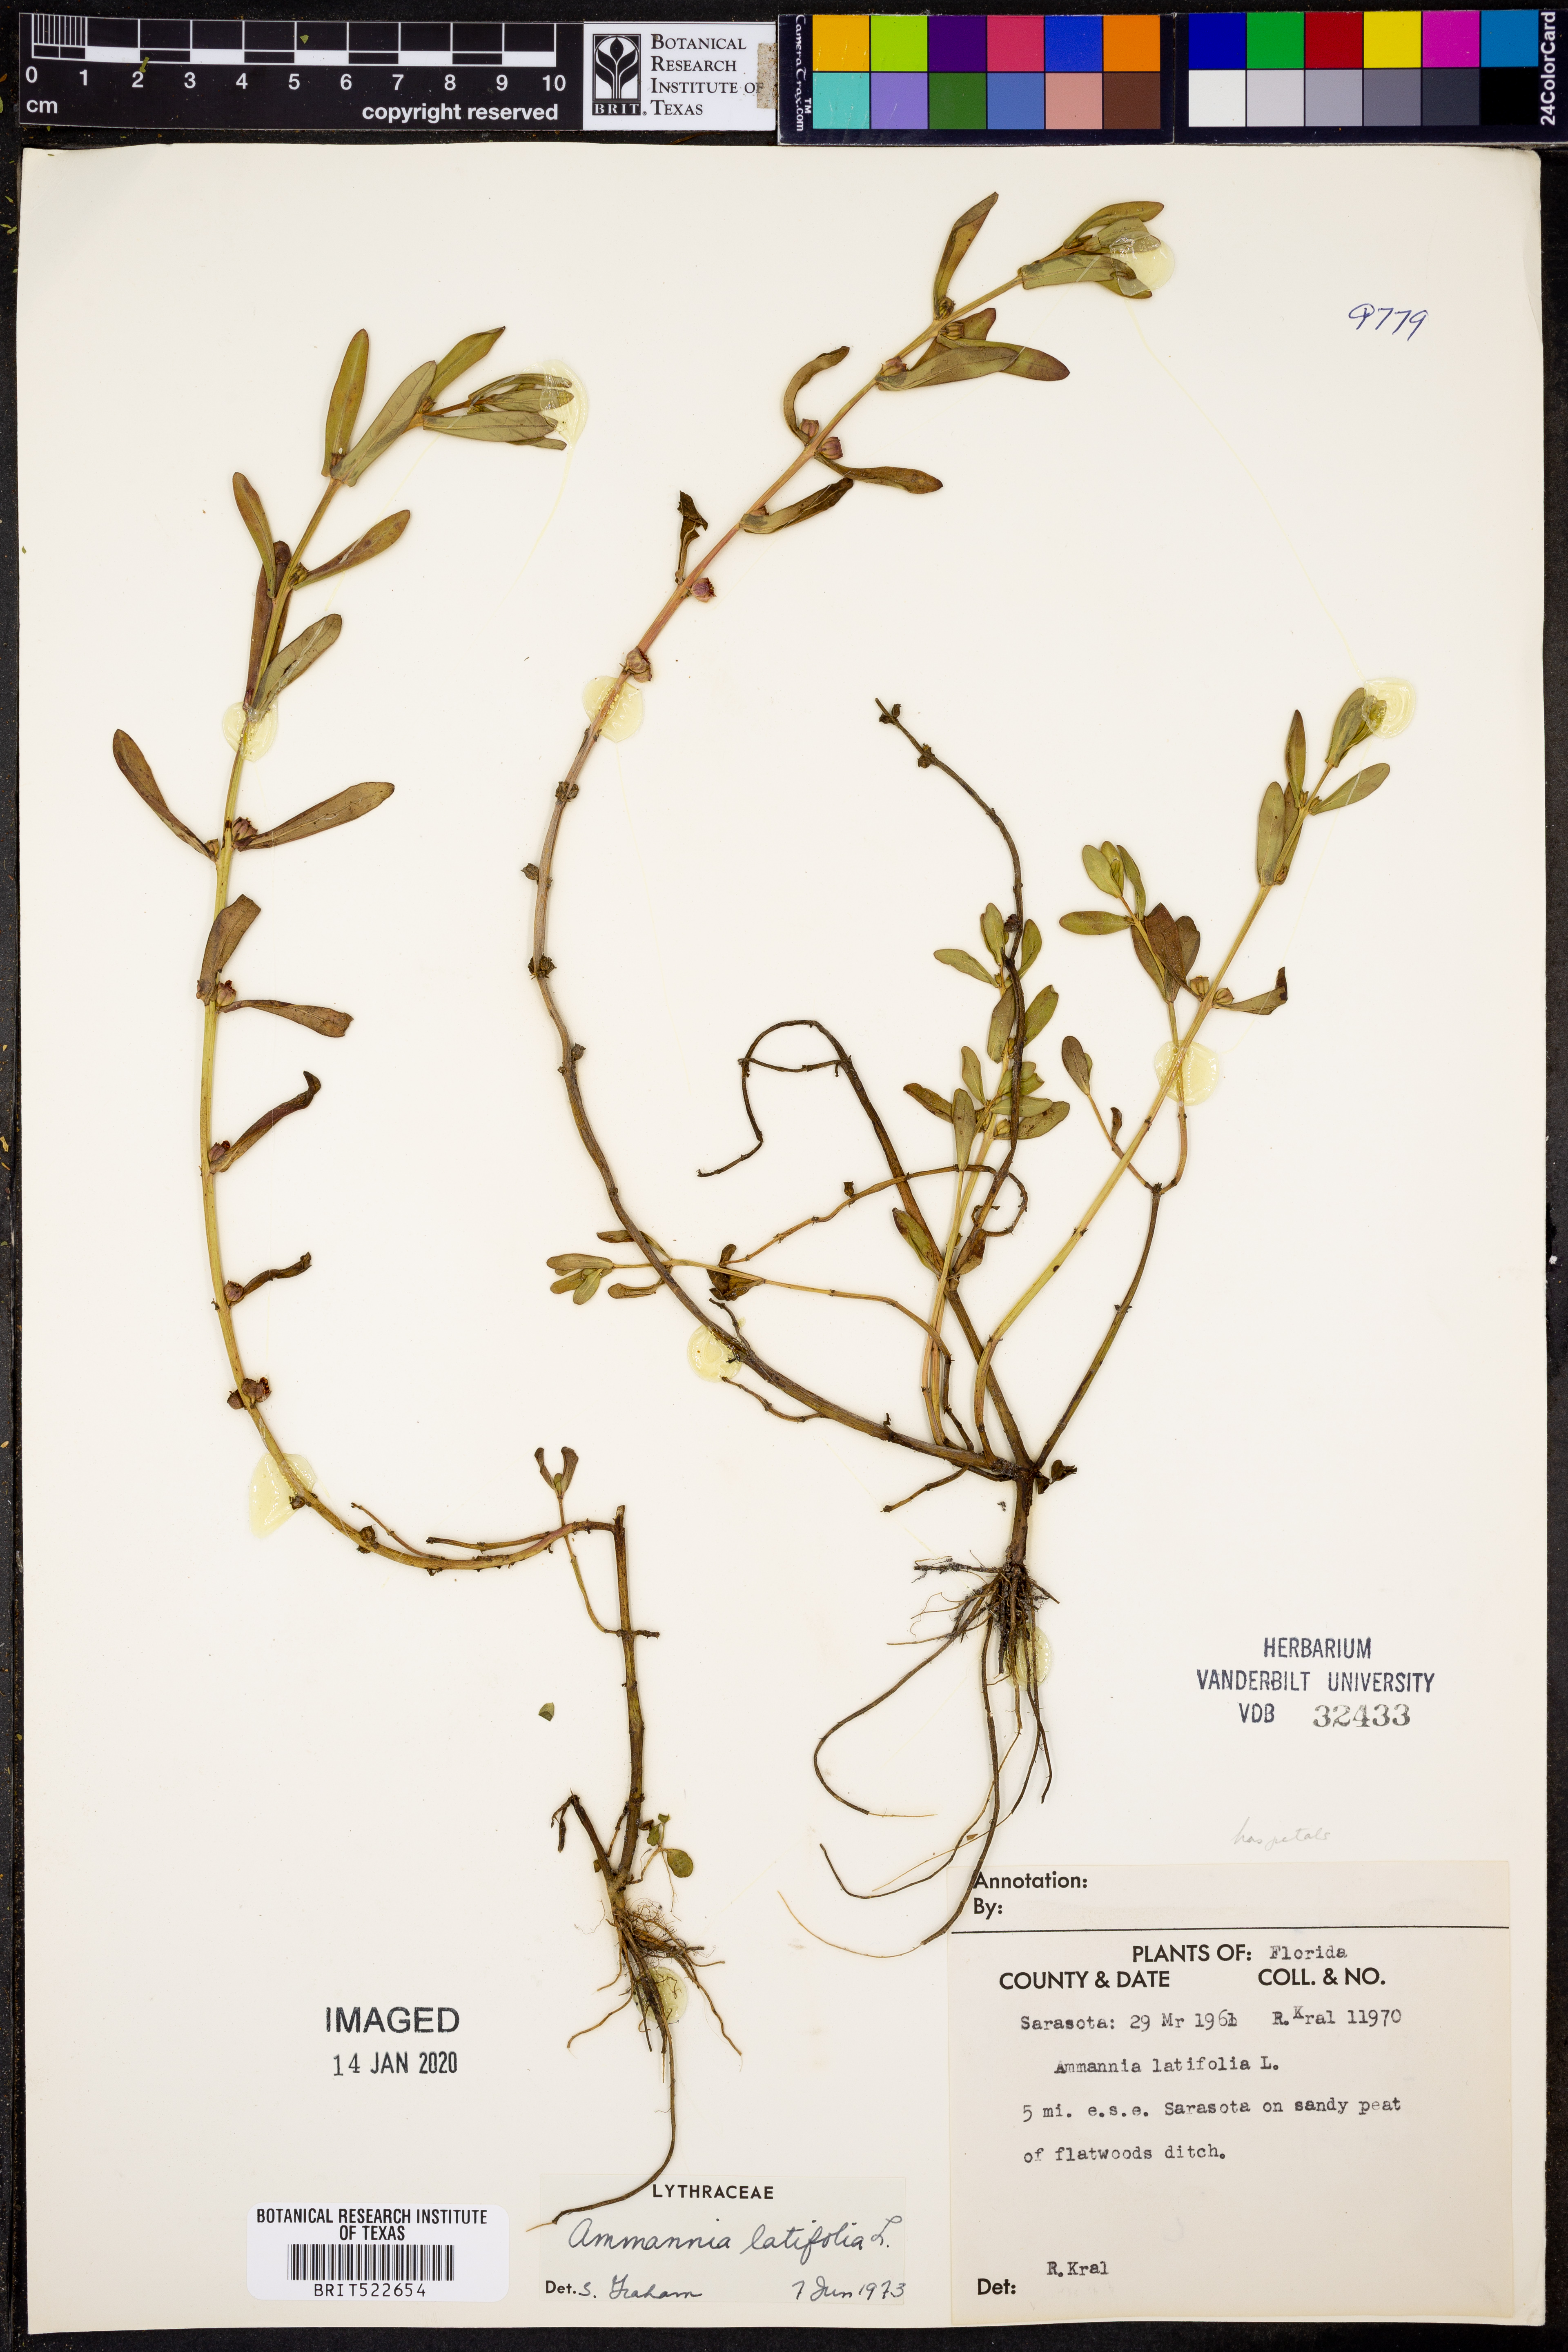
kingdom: Plantae
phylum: Tracheophyta
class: Magnoliopsida
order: Myrtales
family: Lythraceae
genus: Ammannia
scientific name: Ammannia latifolia
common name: Toothcup
